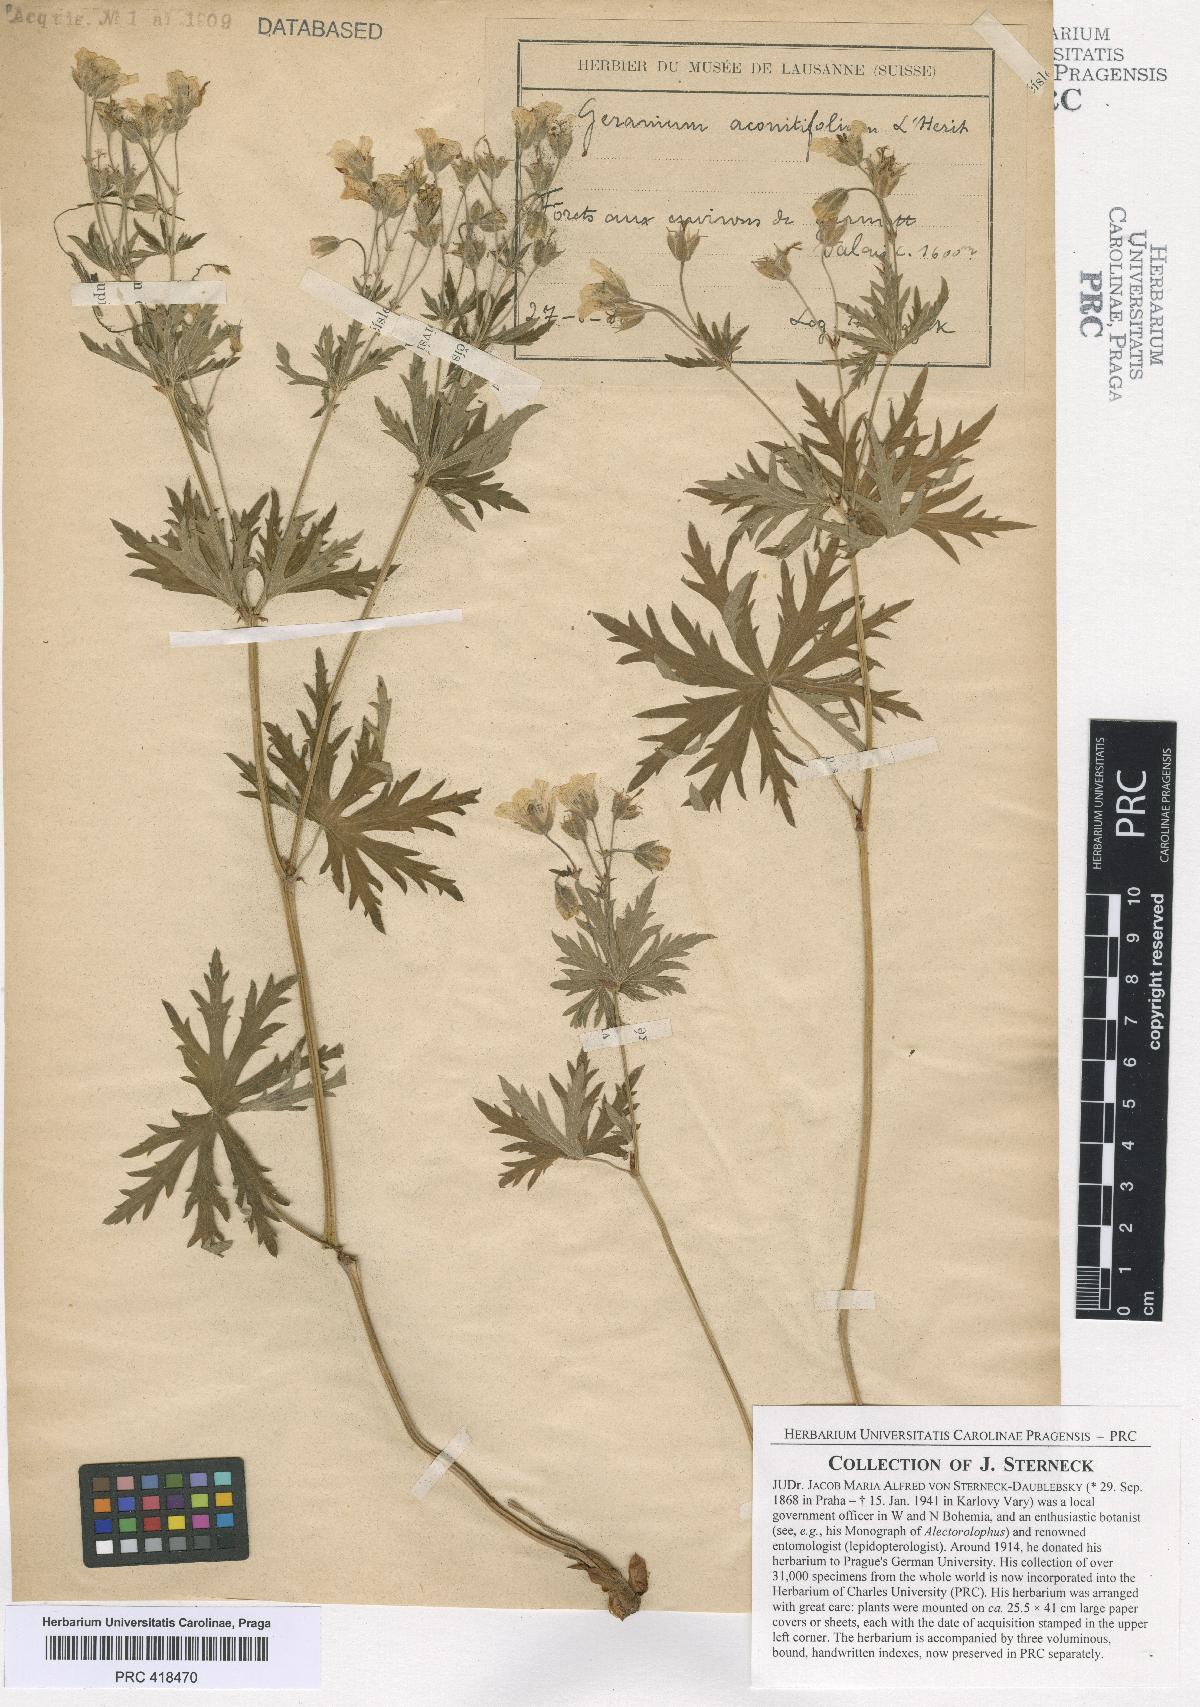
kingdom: Plantae
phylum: Tracheophyta
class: Magnoliopsida
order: Geraniales
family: Geraniaceae
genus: Geranium
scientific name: Geranium rivulare
